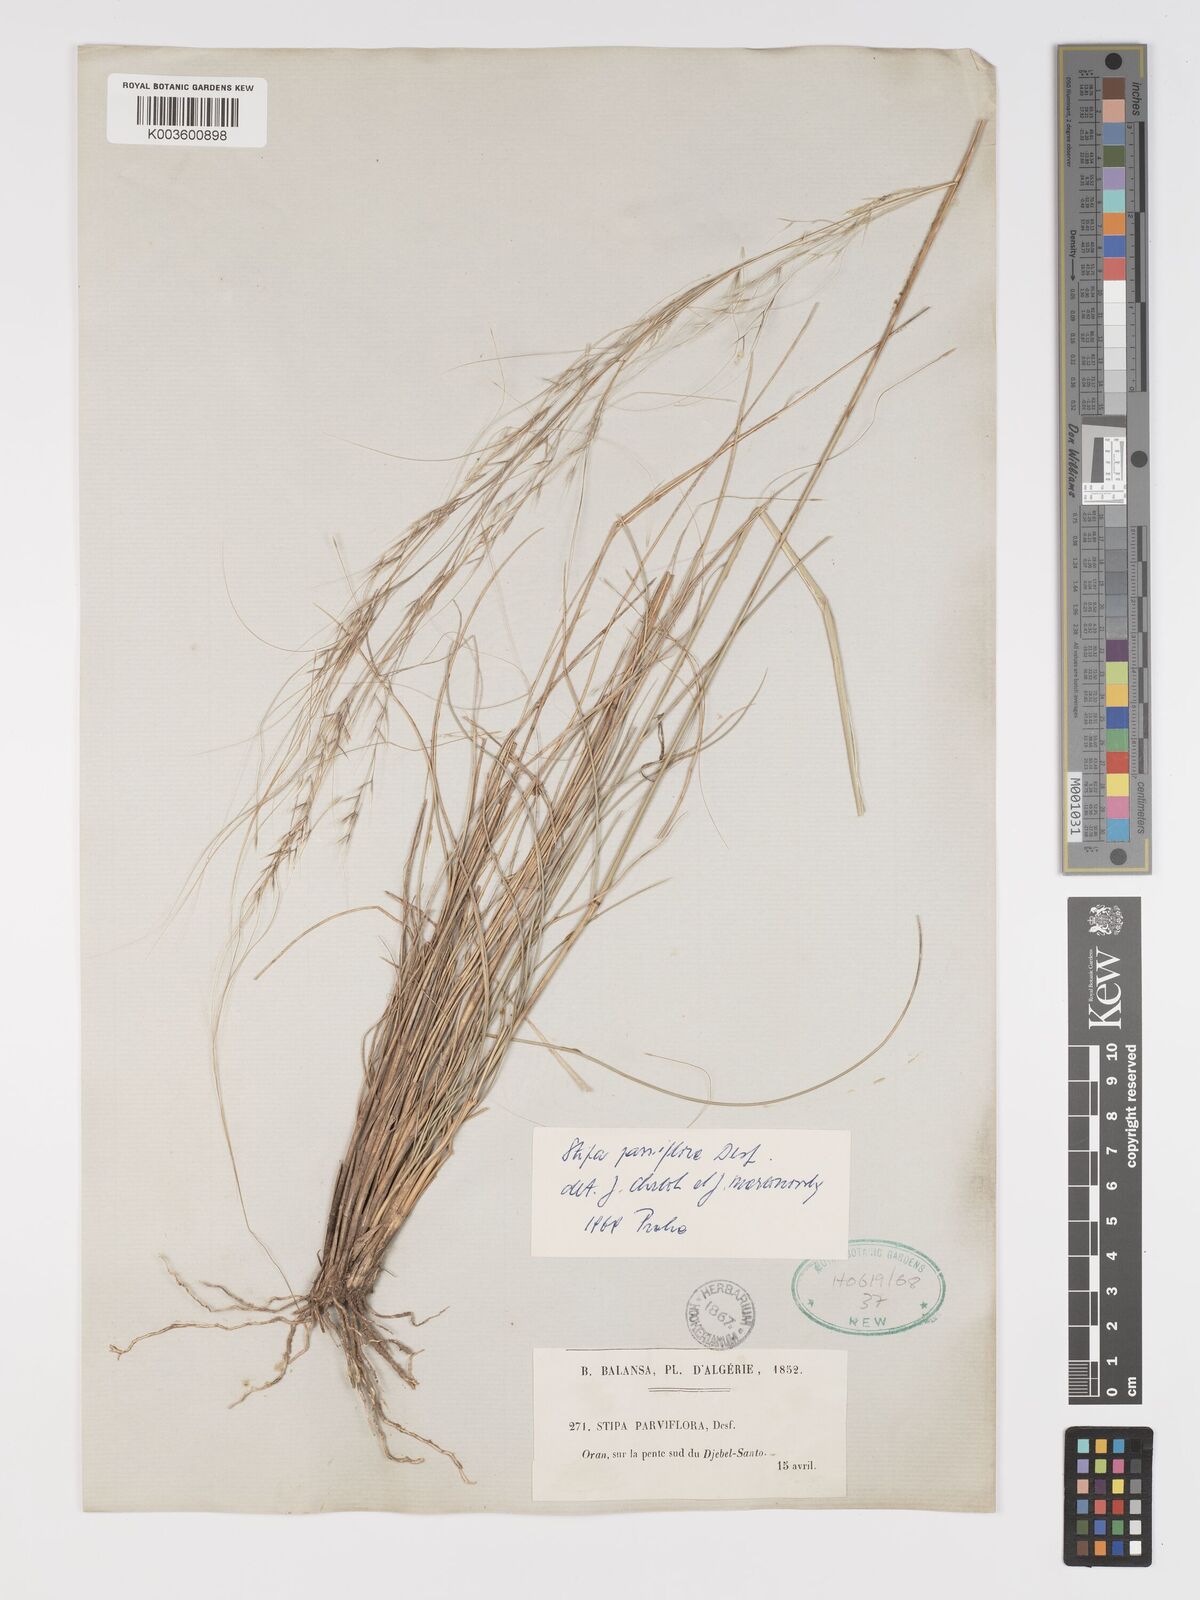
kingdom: Plantae
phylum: Tracheophyta
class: Liliopsida
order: Poales
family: Poaceae
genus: Achnatherum
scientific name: Achnatherum parviflorum
